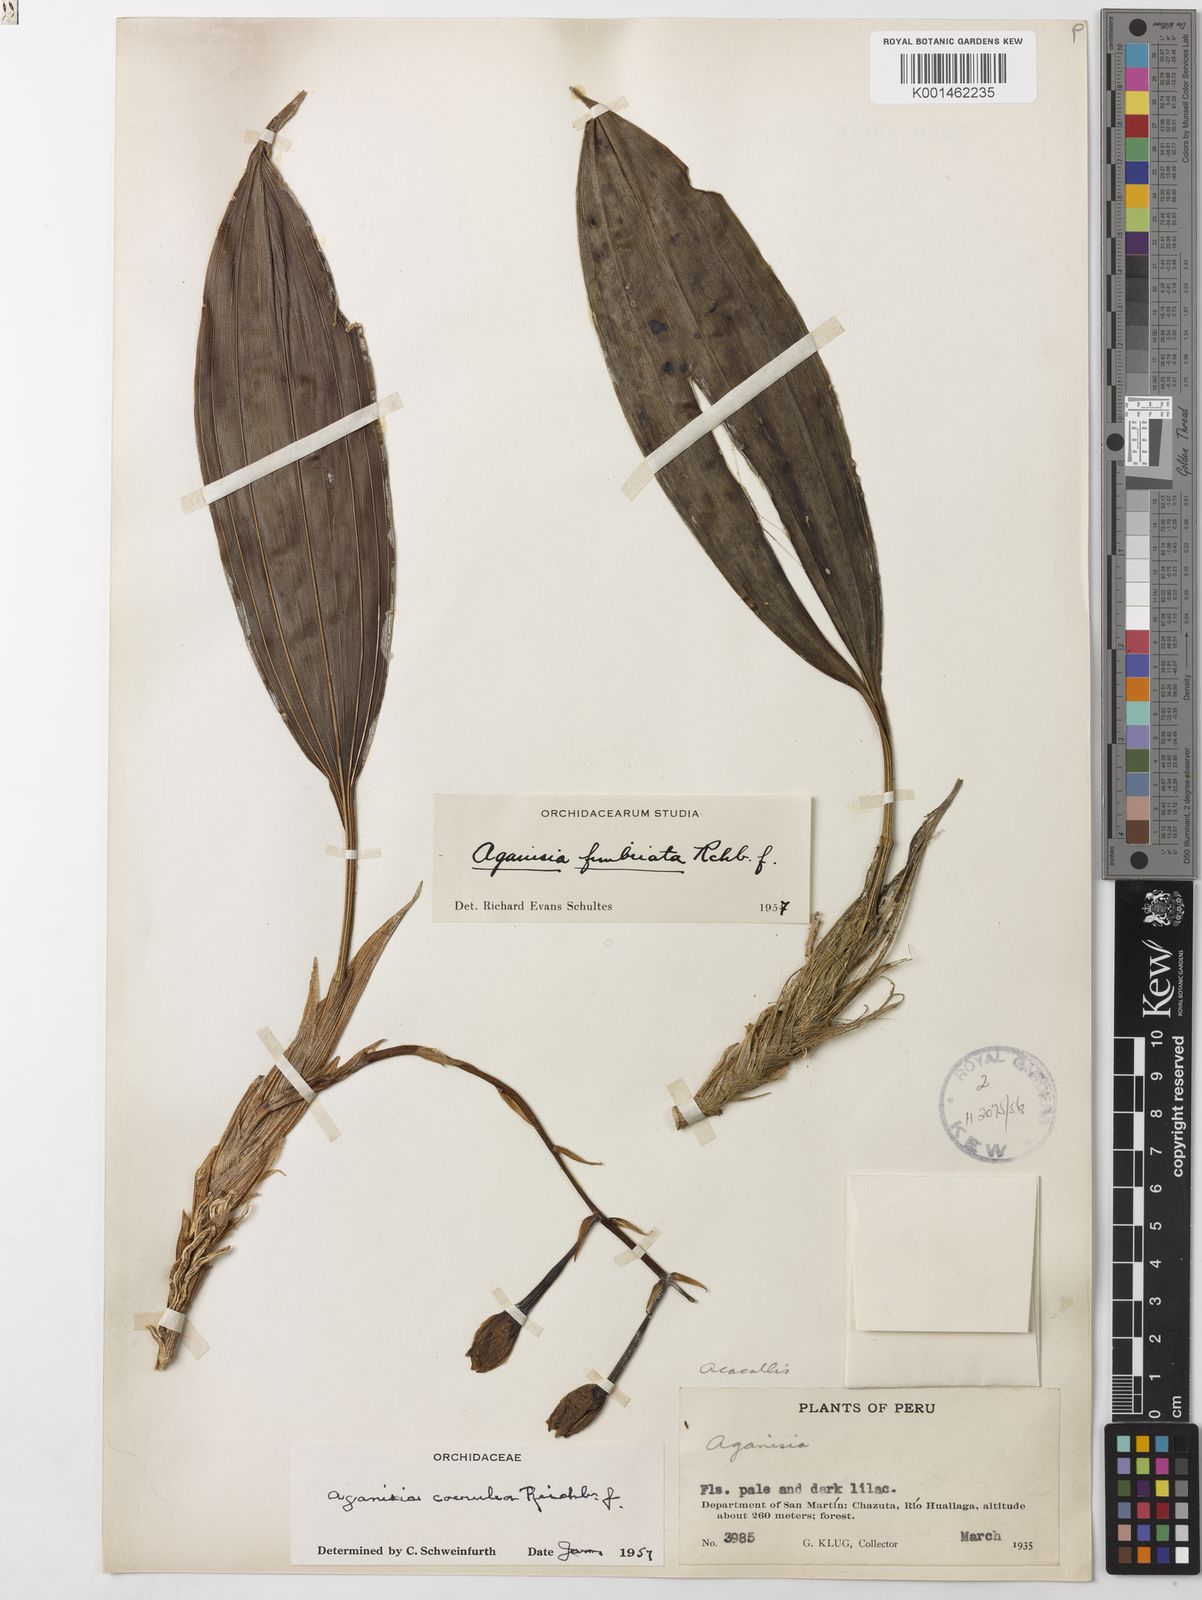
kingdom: Plantae
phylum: Tracheophyta
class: Liliopsida
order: Asparagales
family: Orchidaceae
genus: Aganisia
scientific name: Aganisia fimbriata
